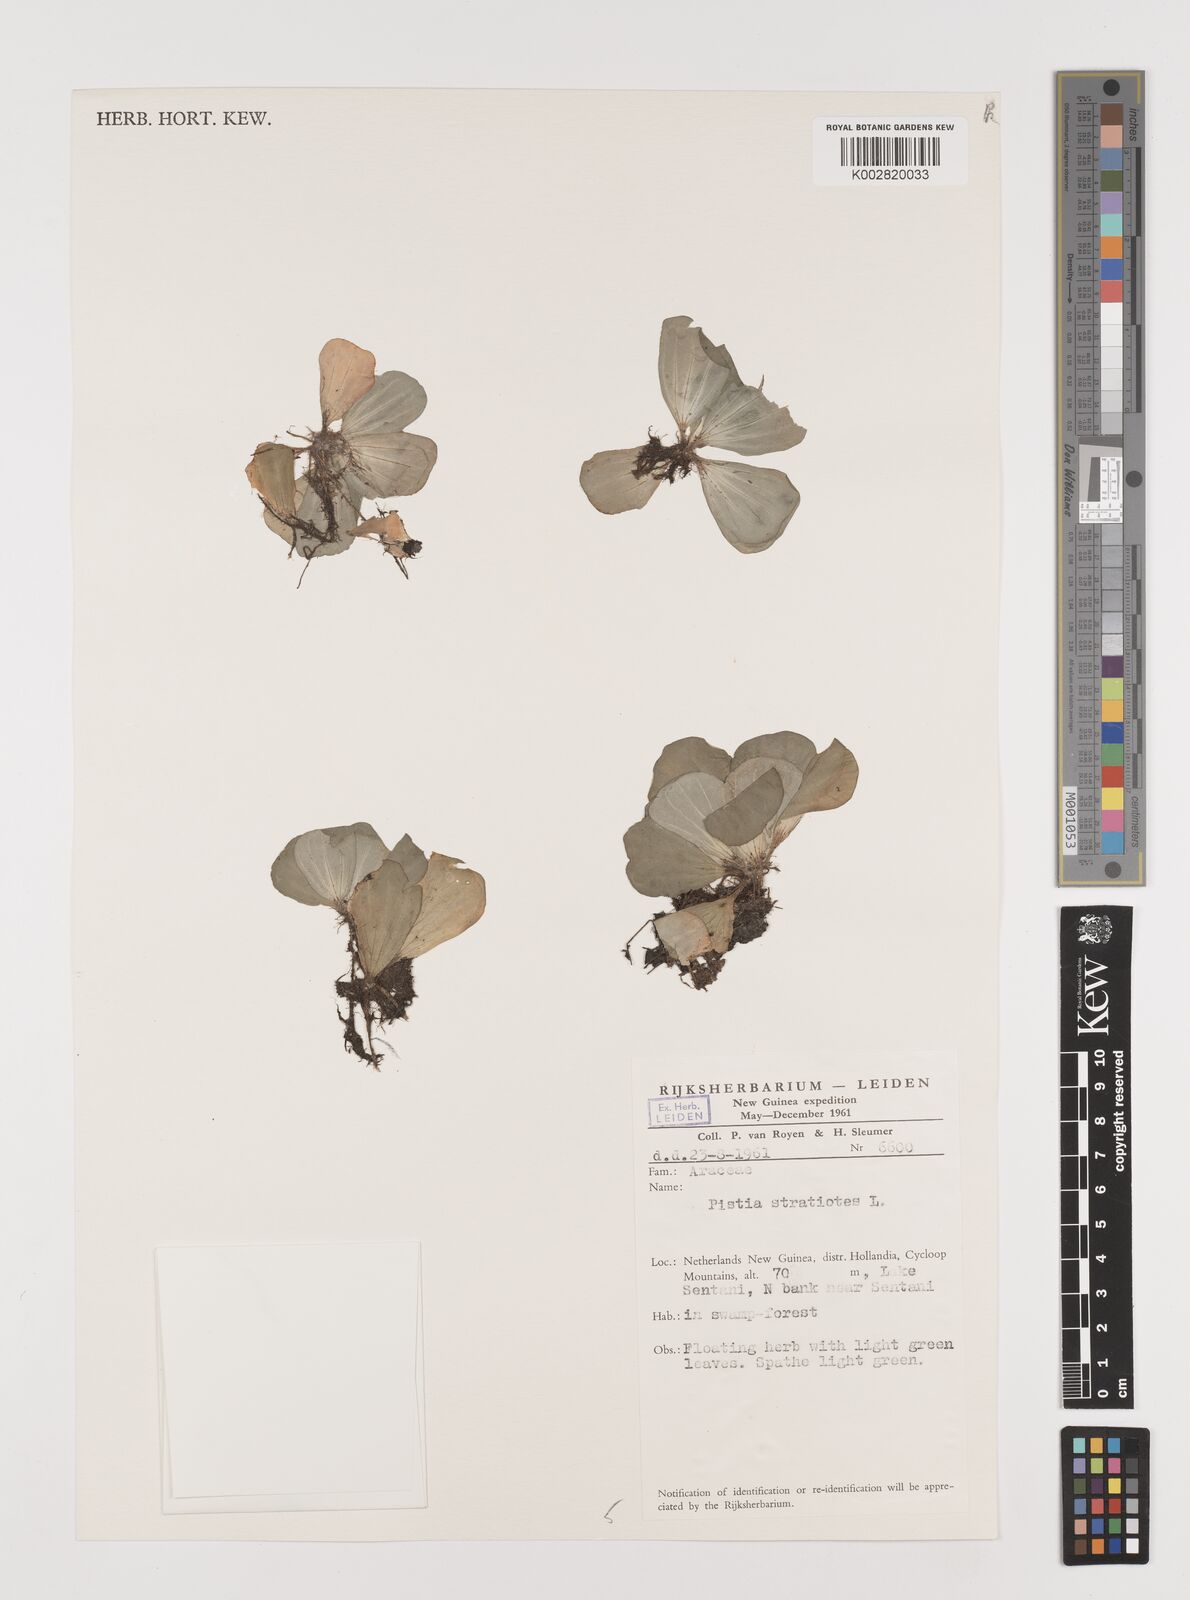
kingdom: Plantae
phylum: Tracheophyta
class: Liliopsida
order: Alismatales
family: Araceae
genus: Pistia
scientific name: Pistia stratiotes
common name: Water lettuce
